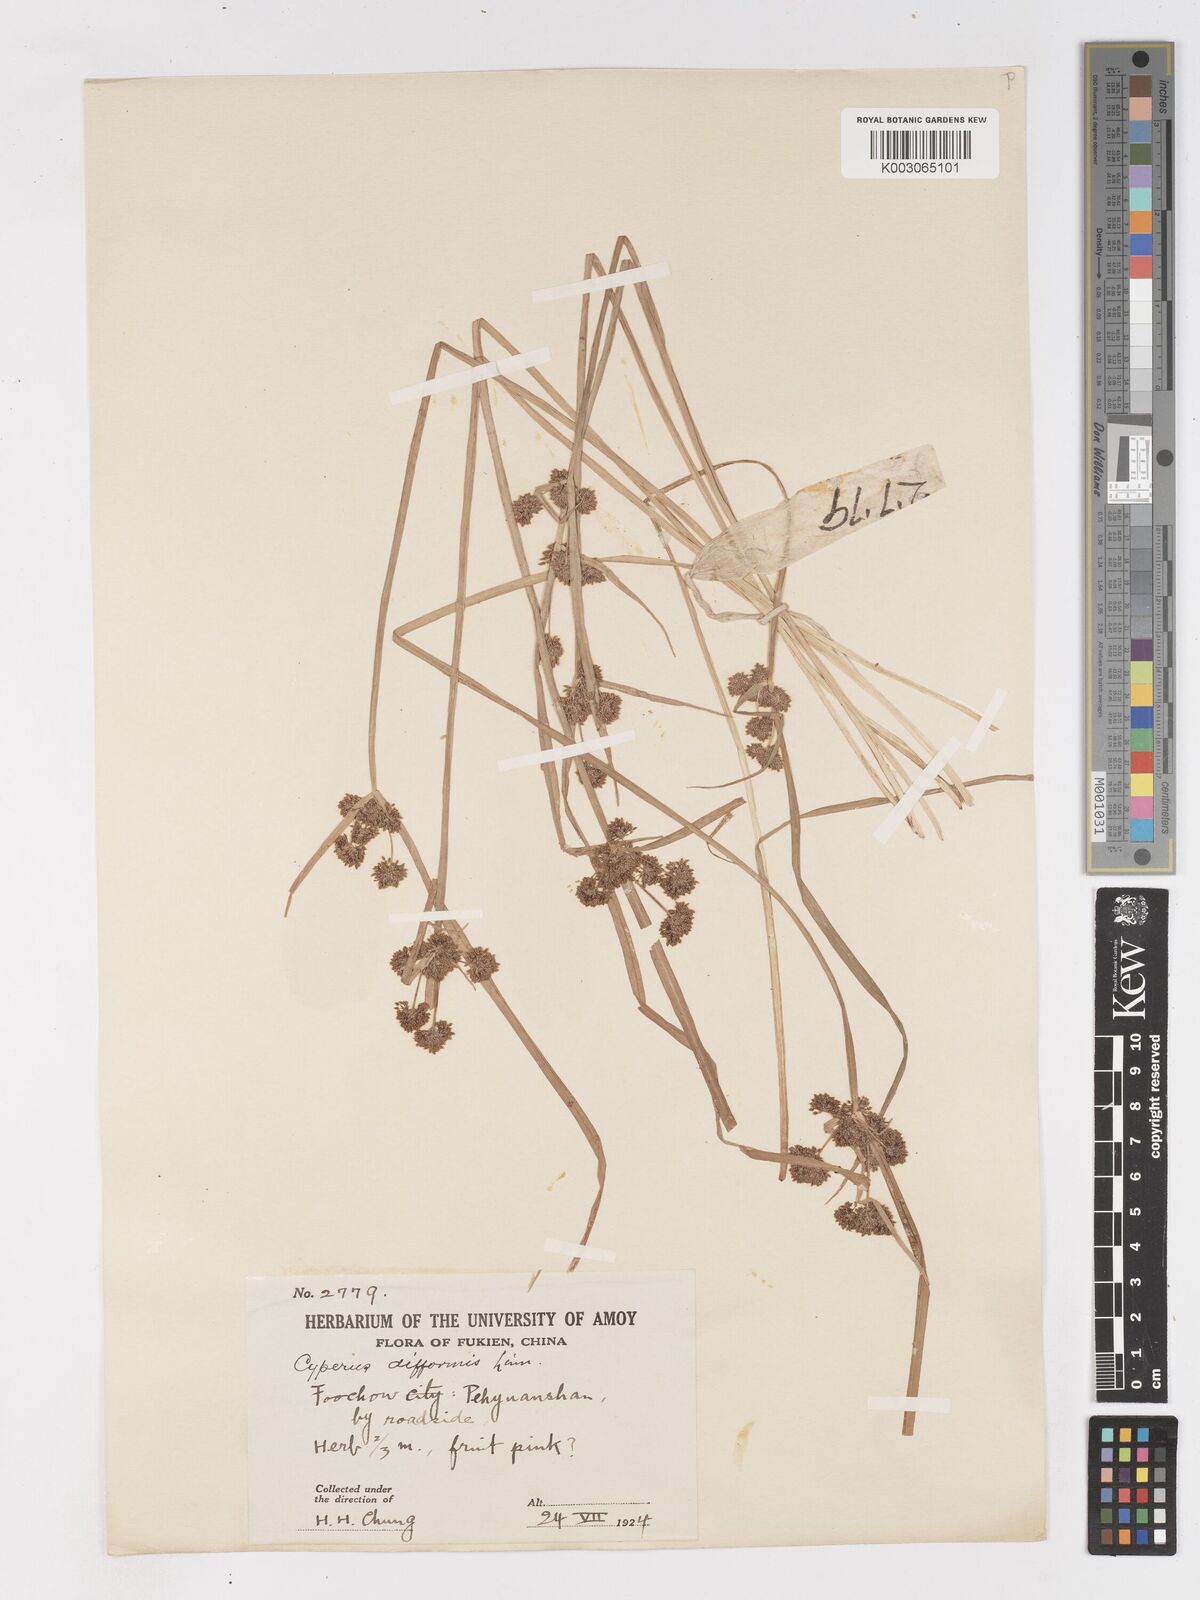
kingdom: Plantae
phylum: Tracheophyta
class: Liliopsida
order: Poales
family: Cyperaceae
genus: Cyperus
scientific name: Cyperus difformis
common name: Variable flatsedge
